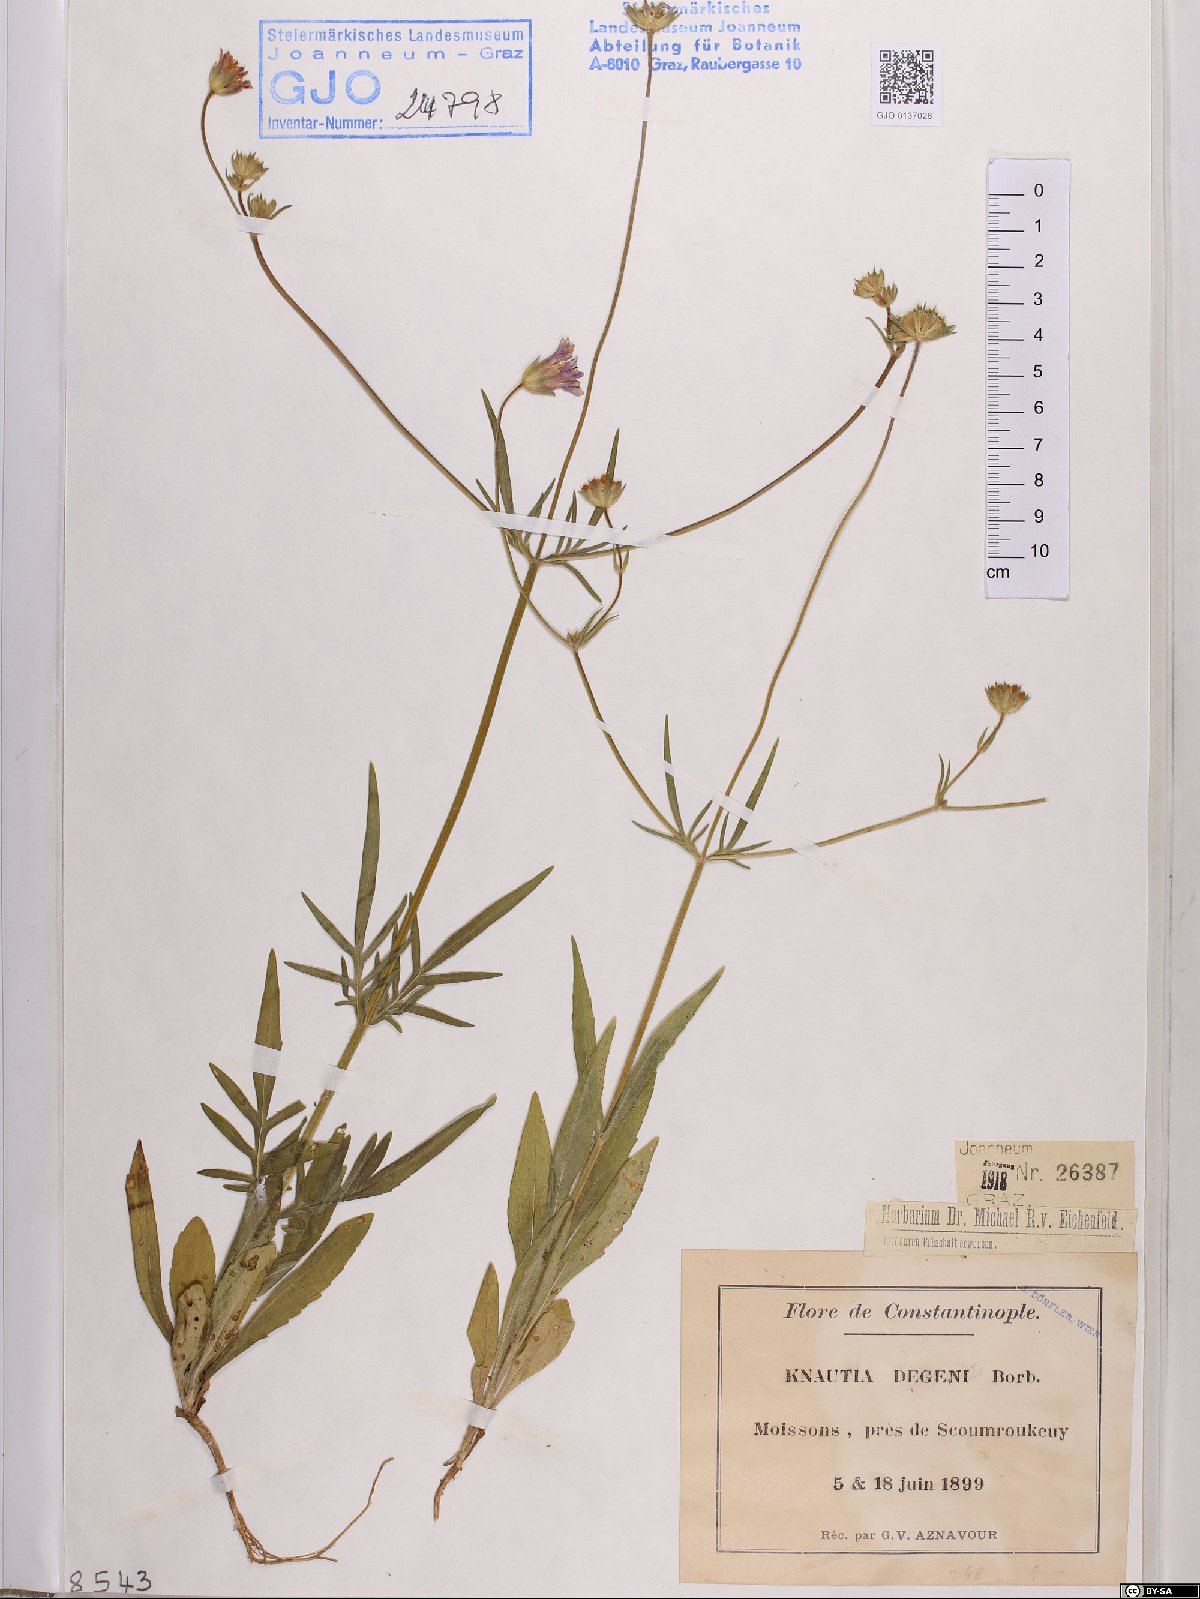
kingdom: Plantae
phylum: Tracheophyta
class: Magnoliopsida
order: Dipsacales
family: Caprifoliaceae
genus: Knautia
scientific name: Knautia degenii
